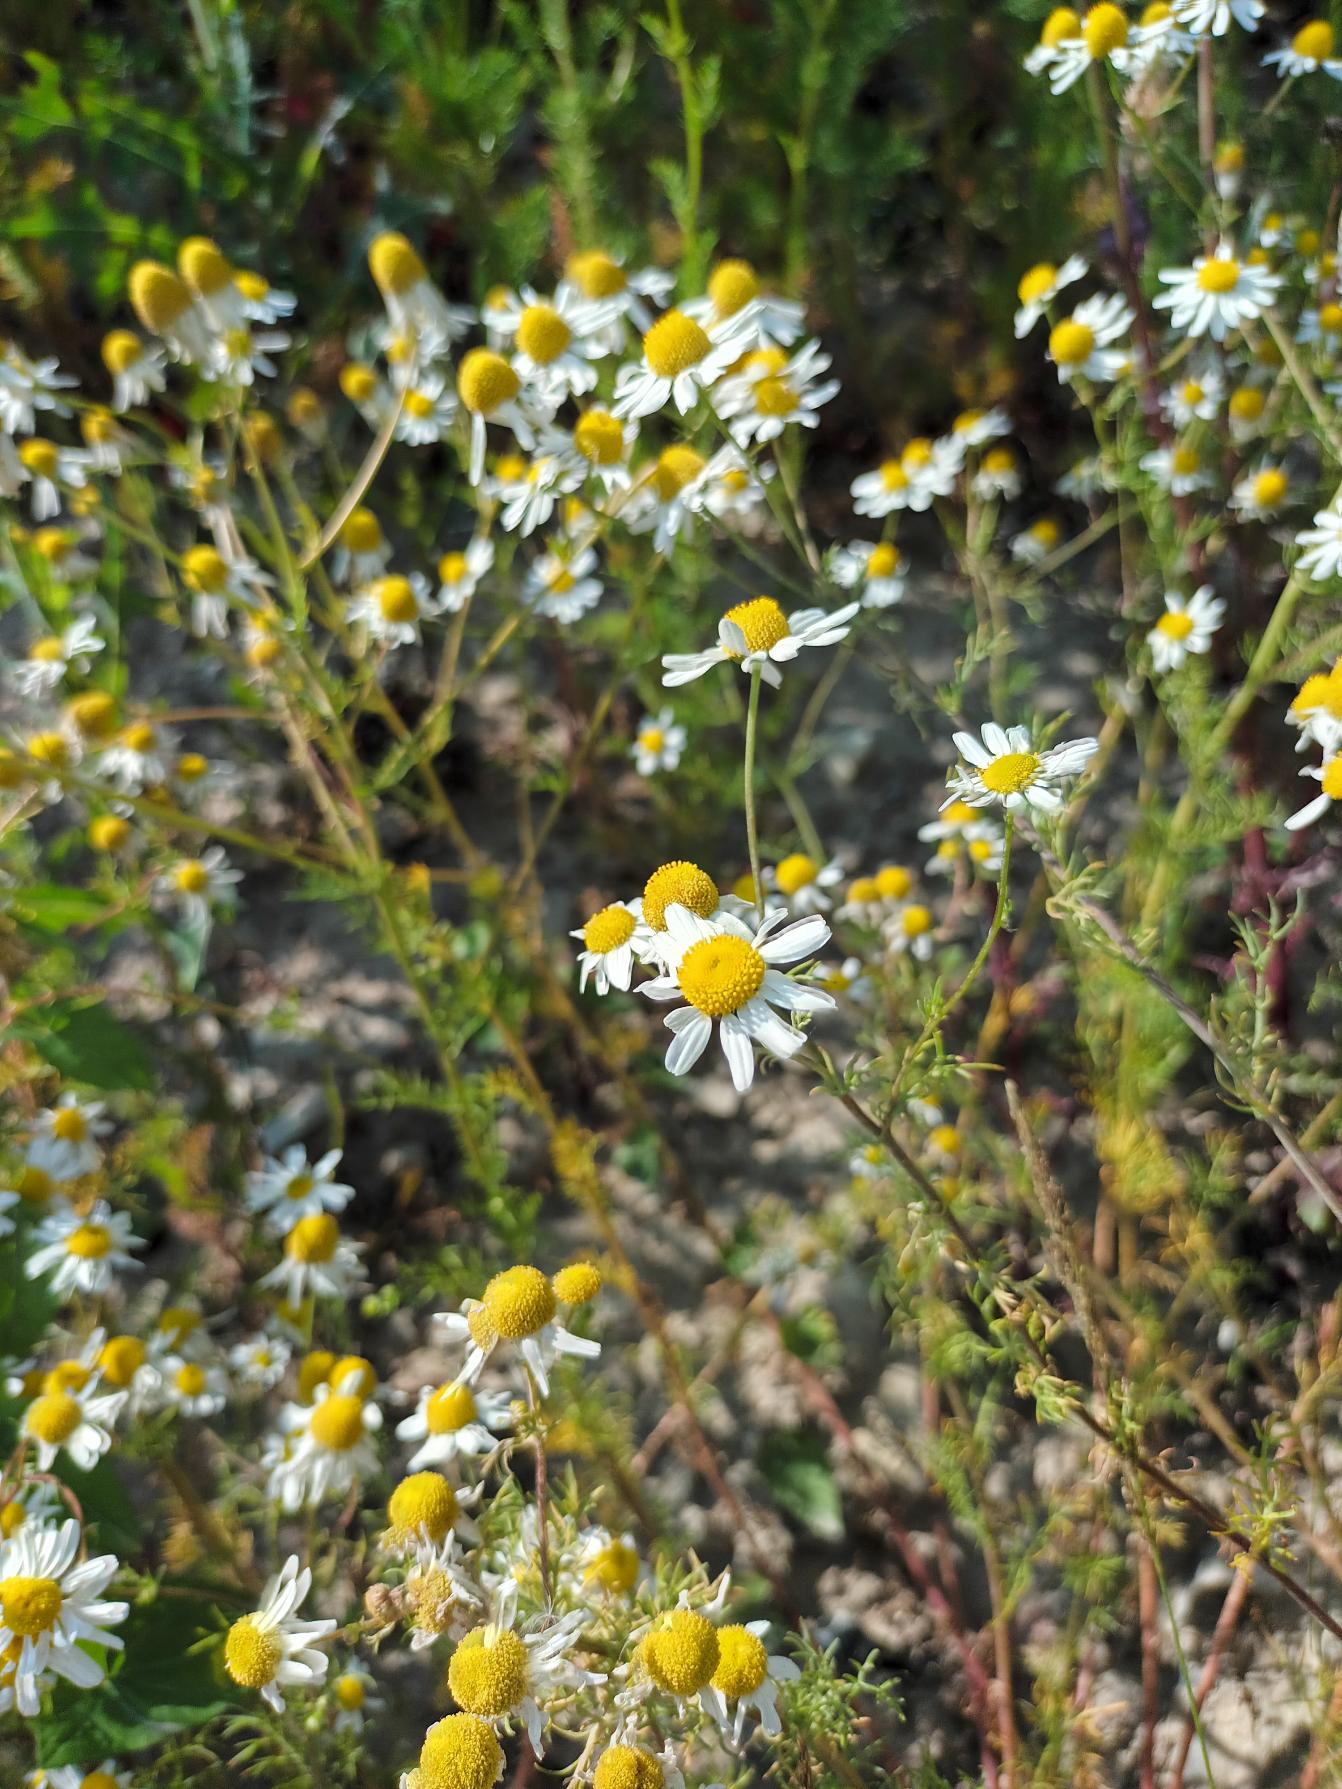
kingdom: Plantae
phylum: Tracheophyta
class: Magnoliopsida
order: Asterales
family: Asteraceae
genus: Matricaria
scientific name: Matricaria chamomilla
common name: Vellugtende kamille
